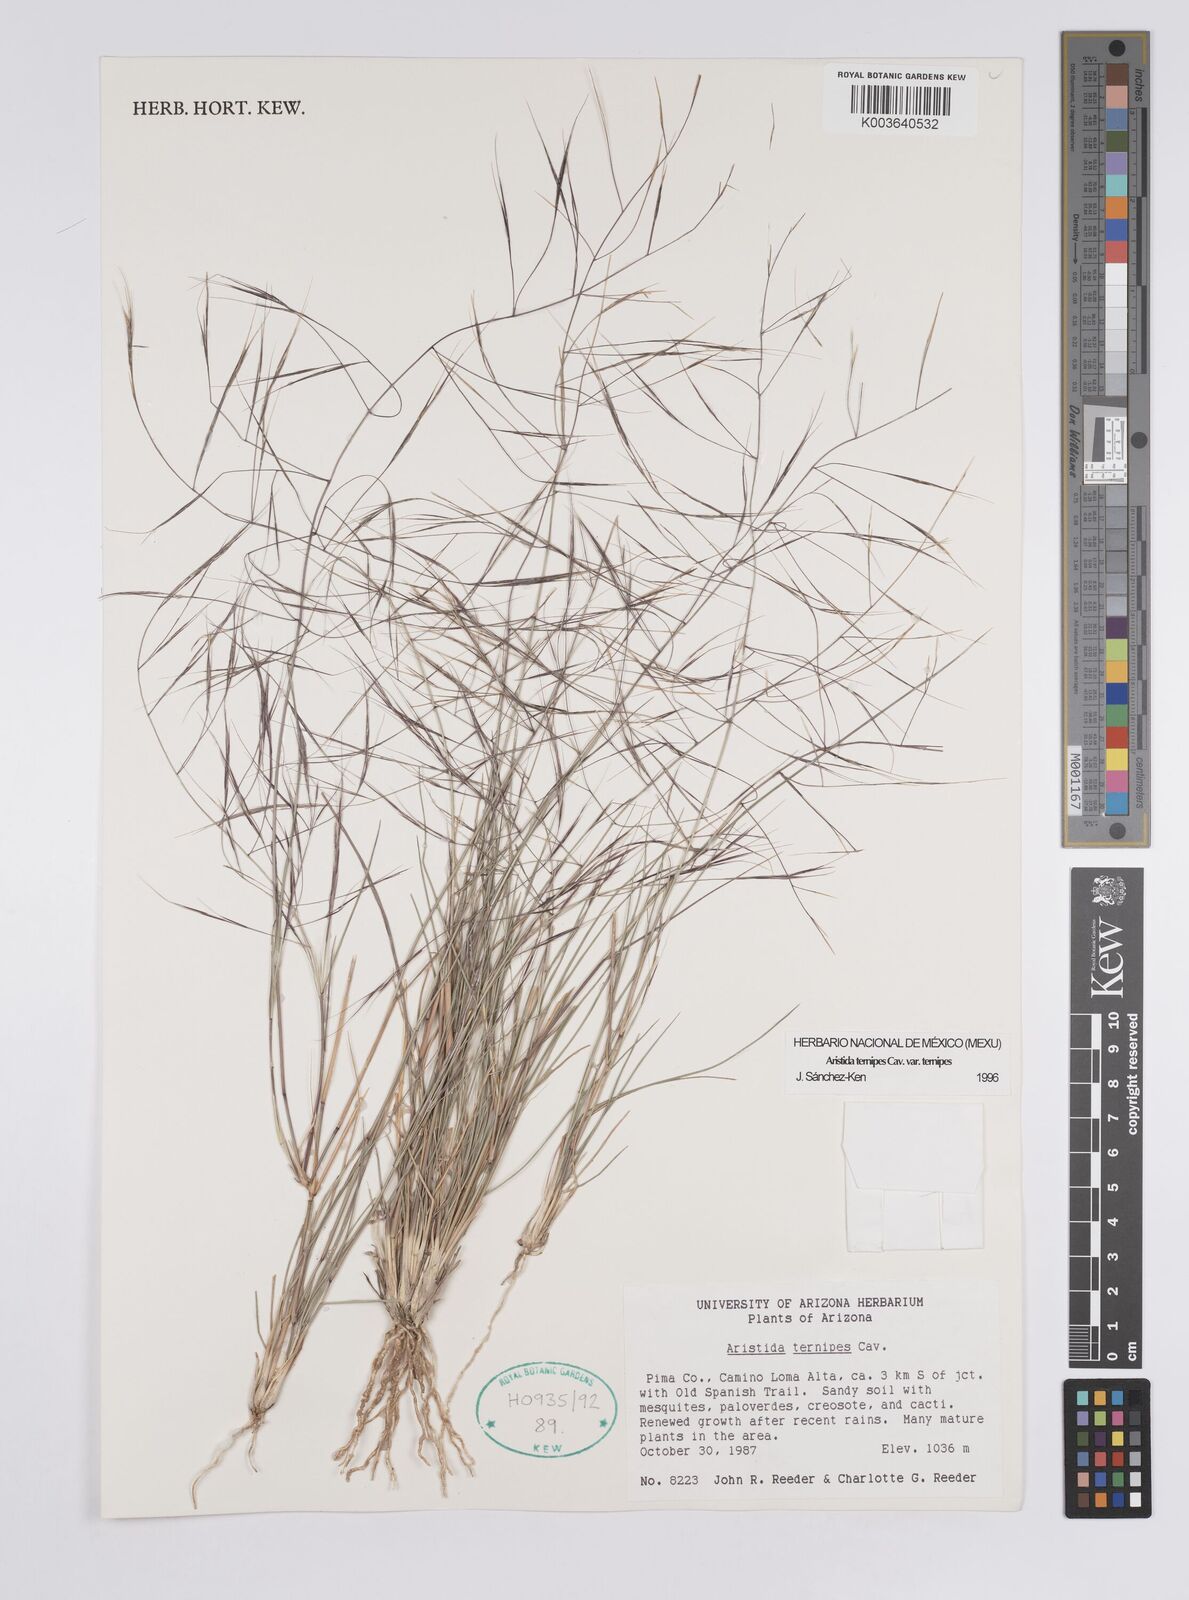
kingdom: Plantae
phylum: Tracheophyta
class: Liliopsida
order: Poales
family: Poaceae
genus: Aristida
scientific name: Aristida ternipes
